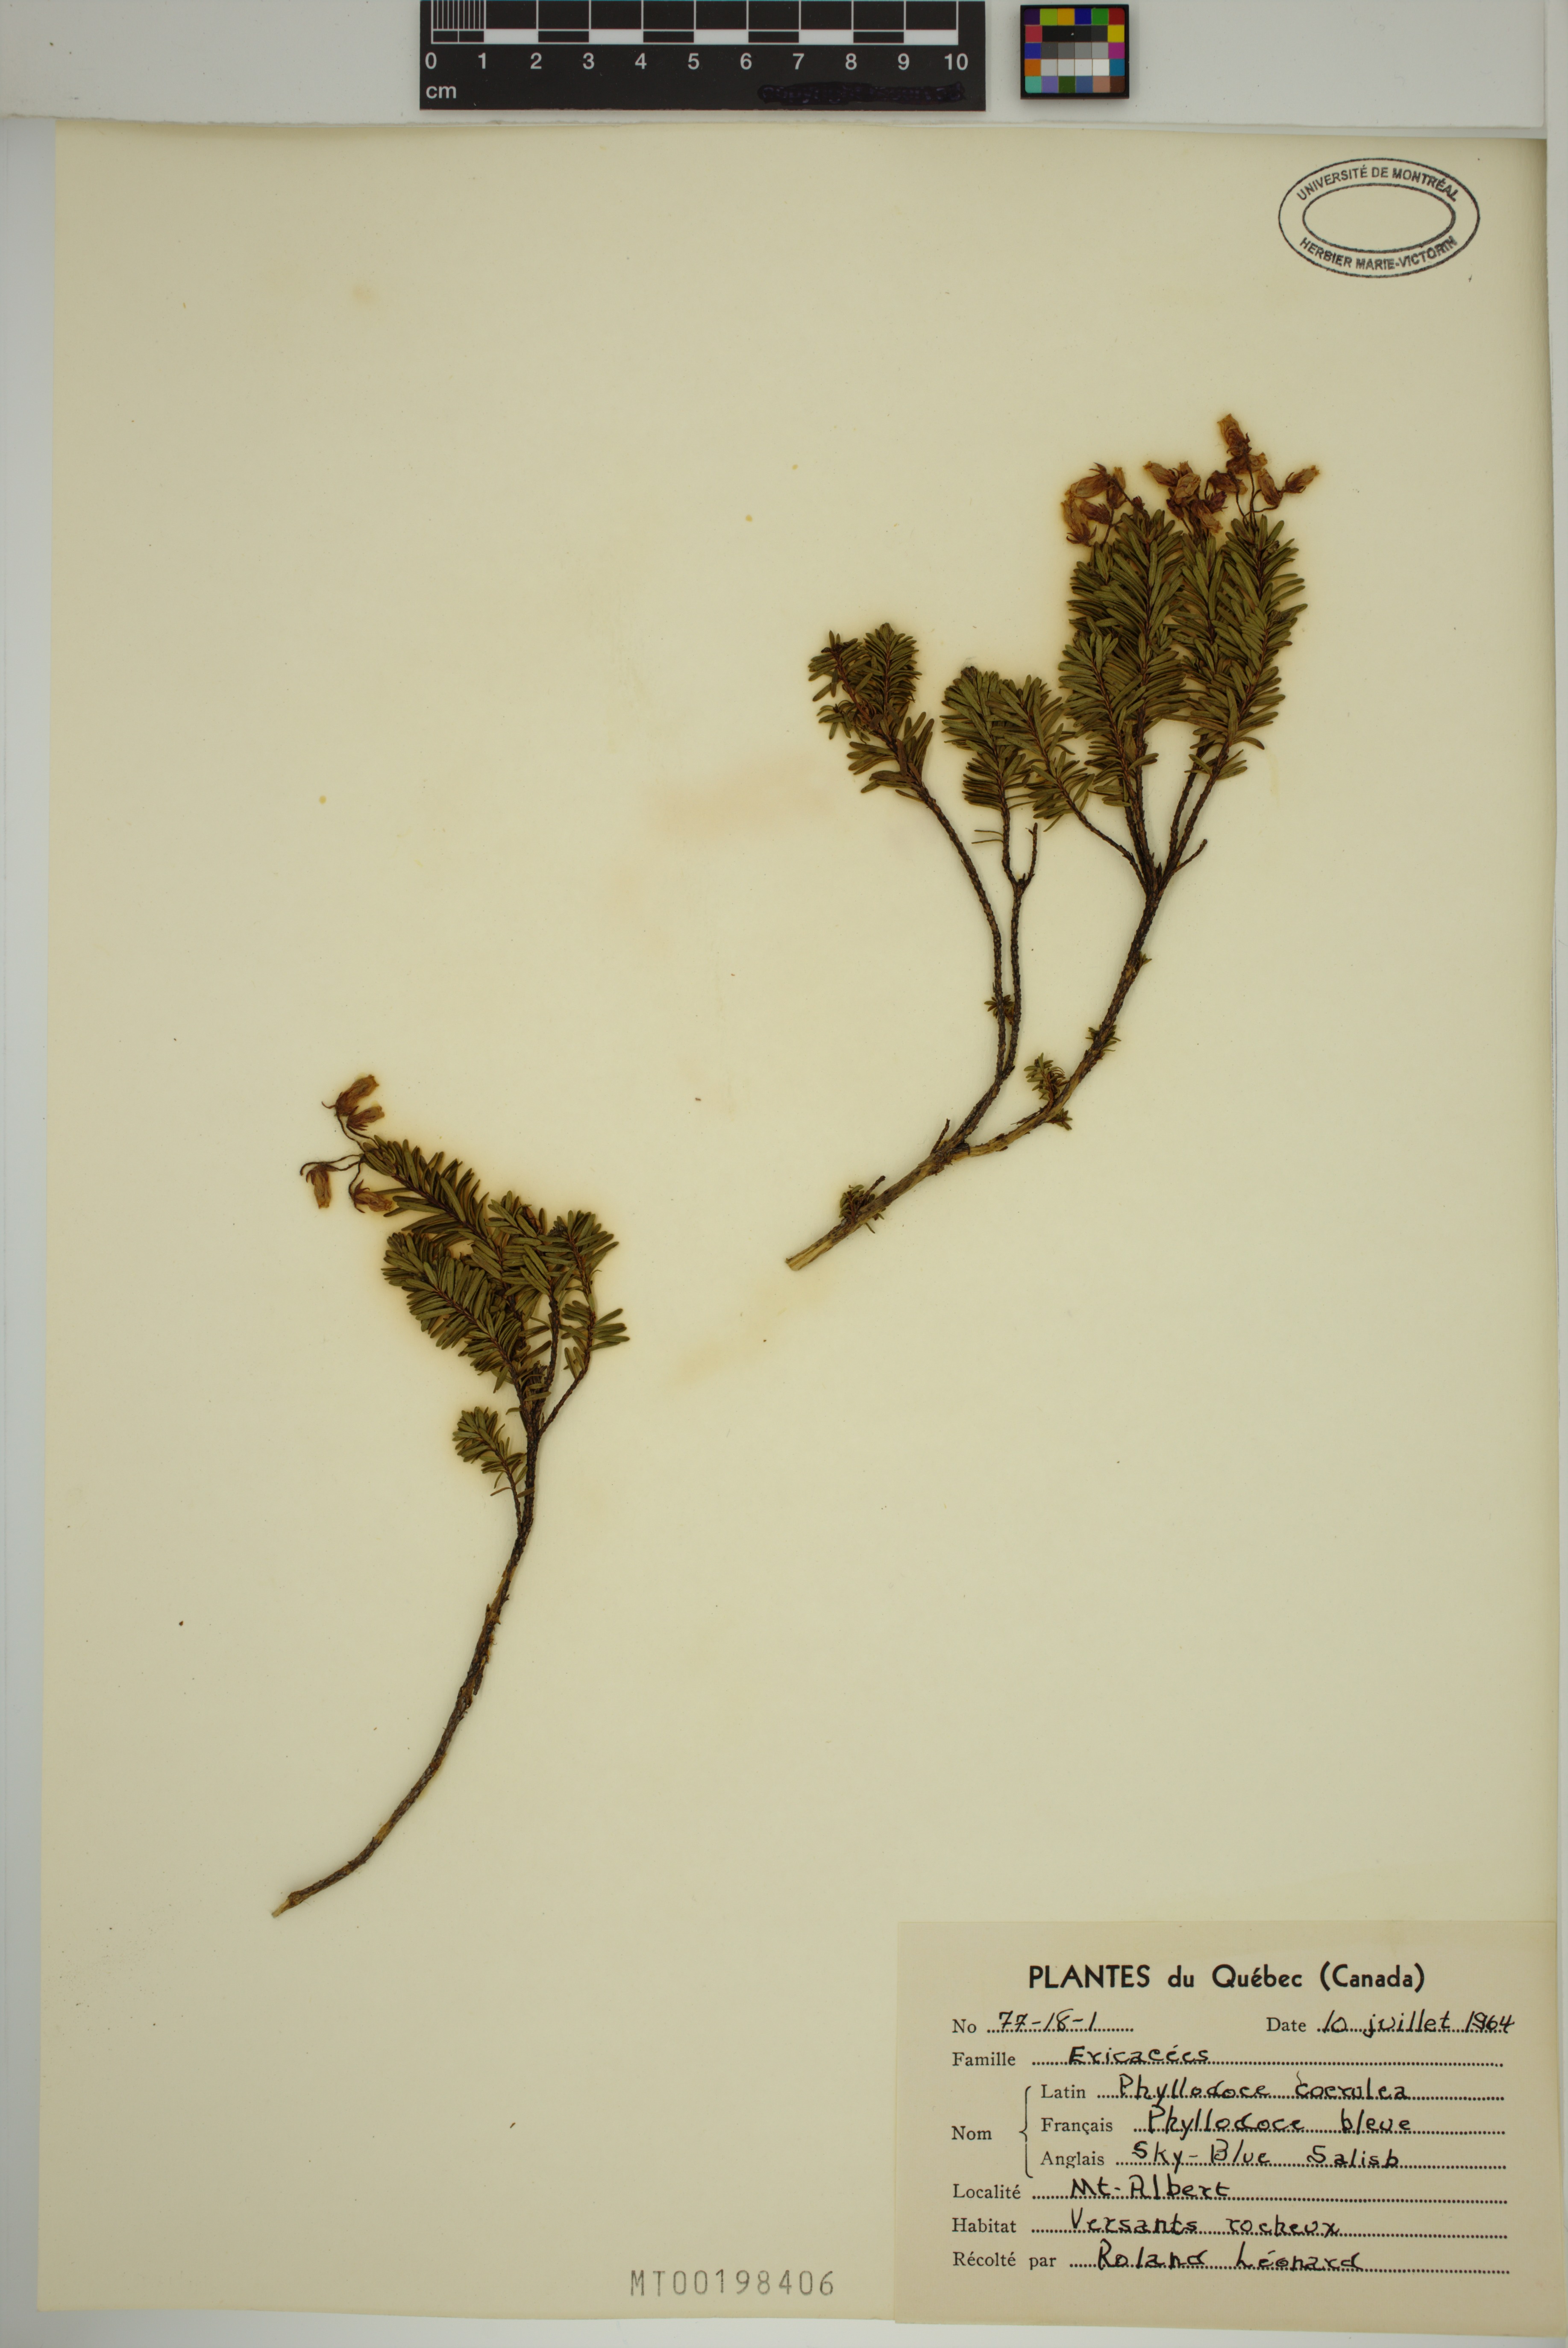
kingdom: Plantae
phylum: Tracheophyta
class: Magnoliopsida
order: Ericales
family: Ericaceae
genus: Phyllodoce
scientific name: Phyllodoce caerulea
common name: Blue heath
